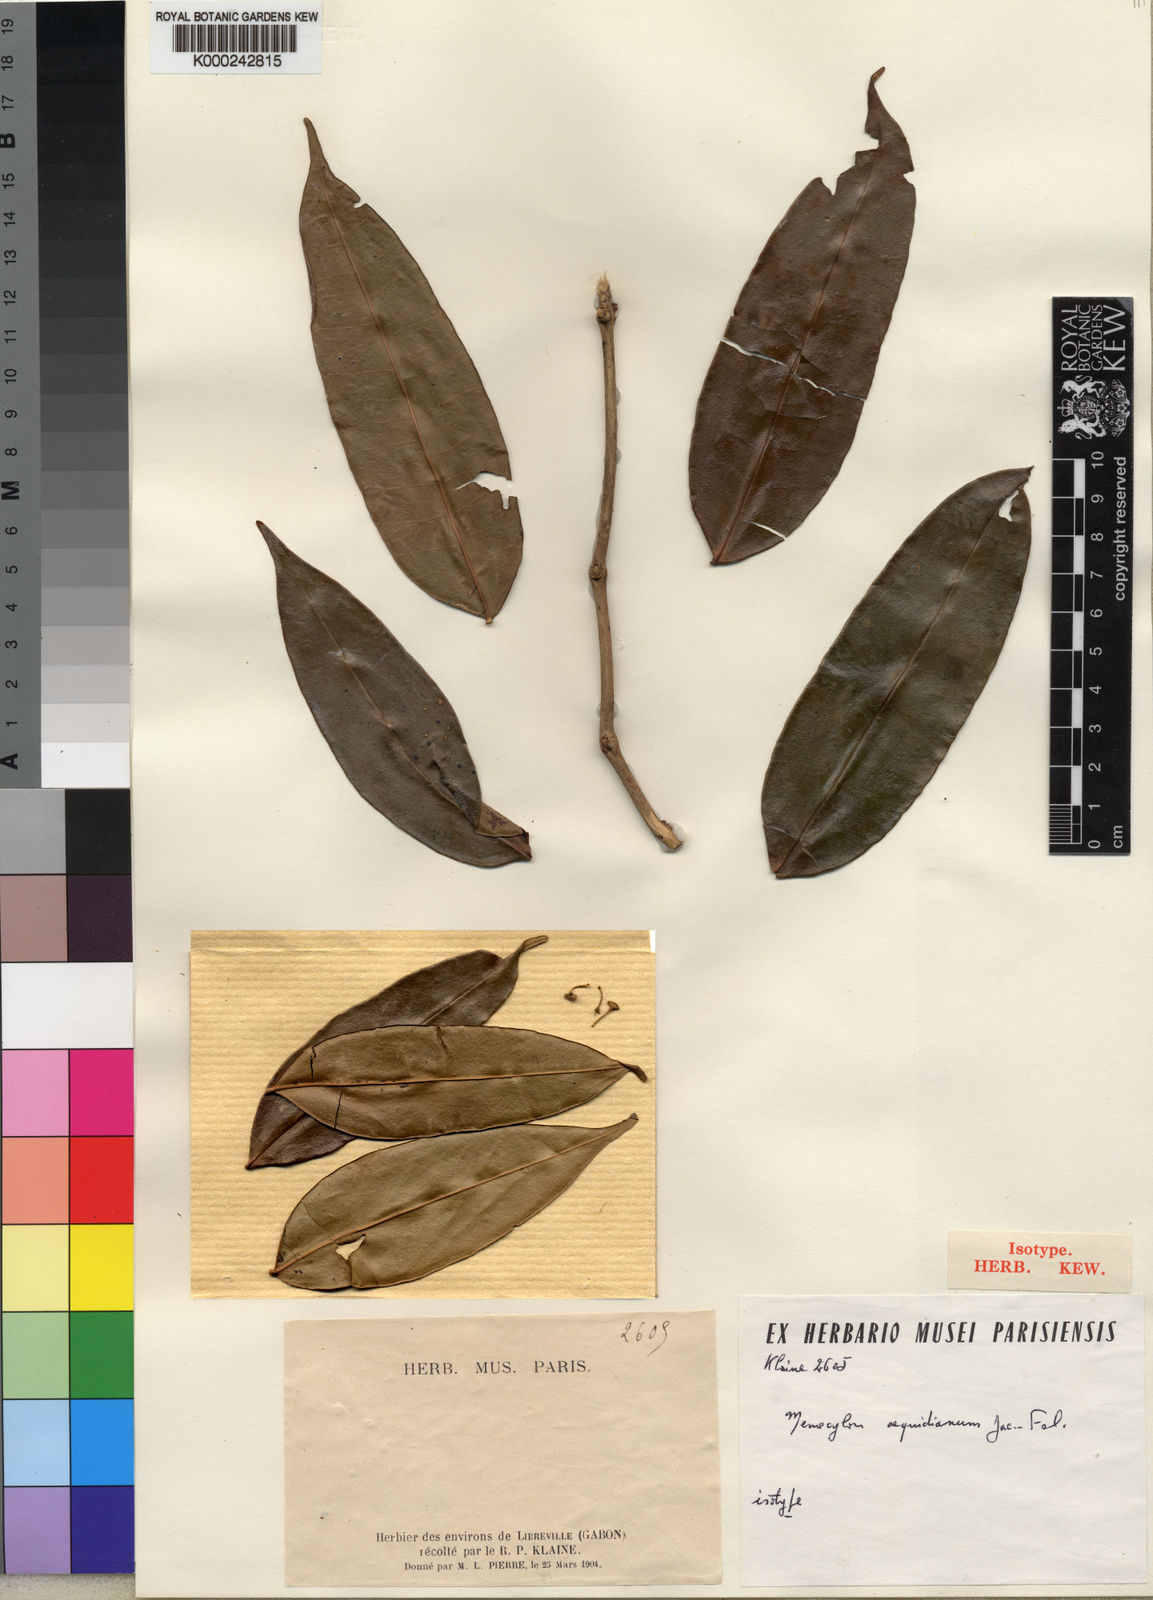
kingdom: Plantae
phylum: Tracheophyta
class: Magnoliopsida
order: Myrtales
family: Melastomataceae
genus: Memecylon
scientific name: Memecylon
